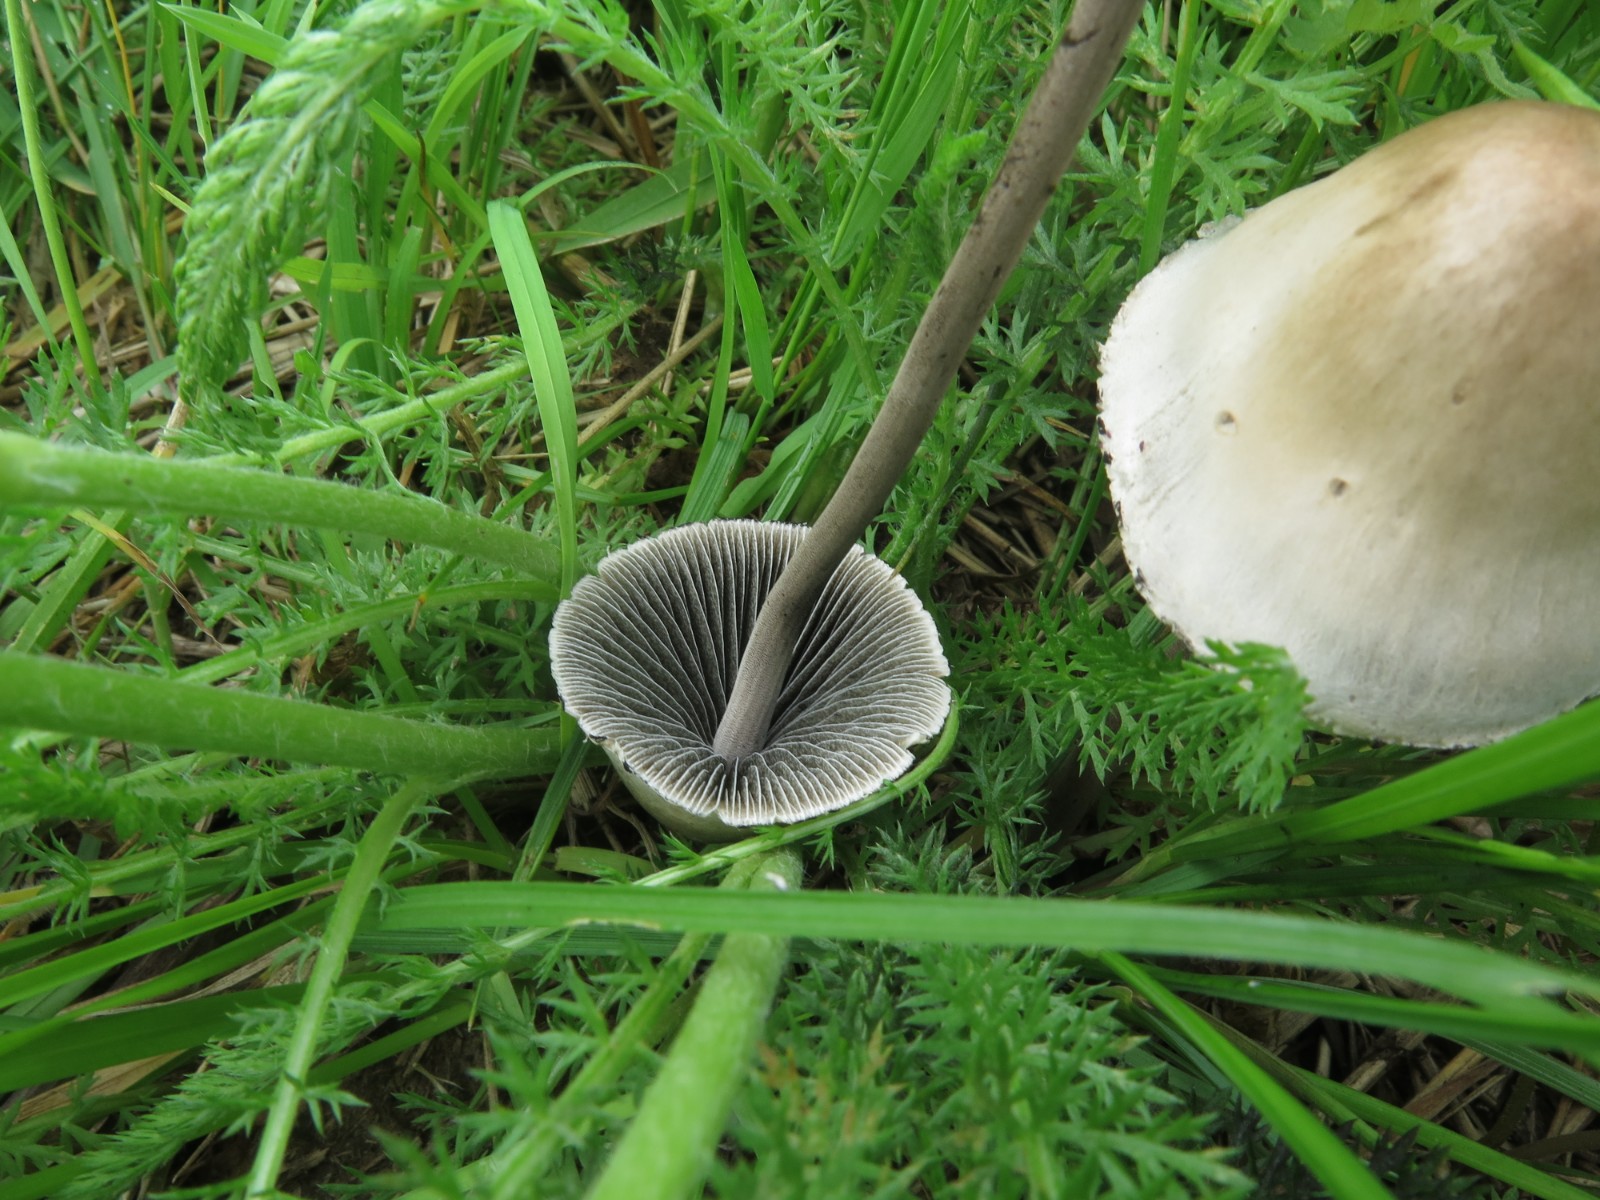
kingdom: Fungi
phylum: Basidiomycota
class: Agaricomycetes
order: Agaricales
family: Bolbitiaceae
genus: Panaeolus
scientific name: Panaeolus papilionaceus
